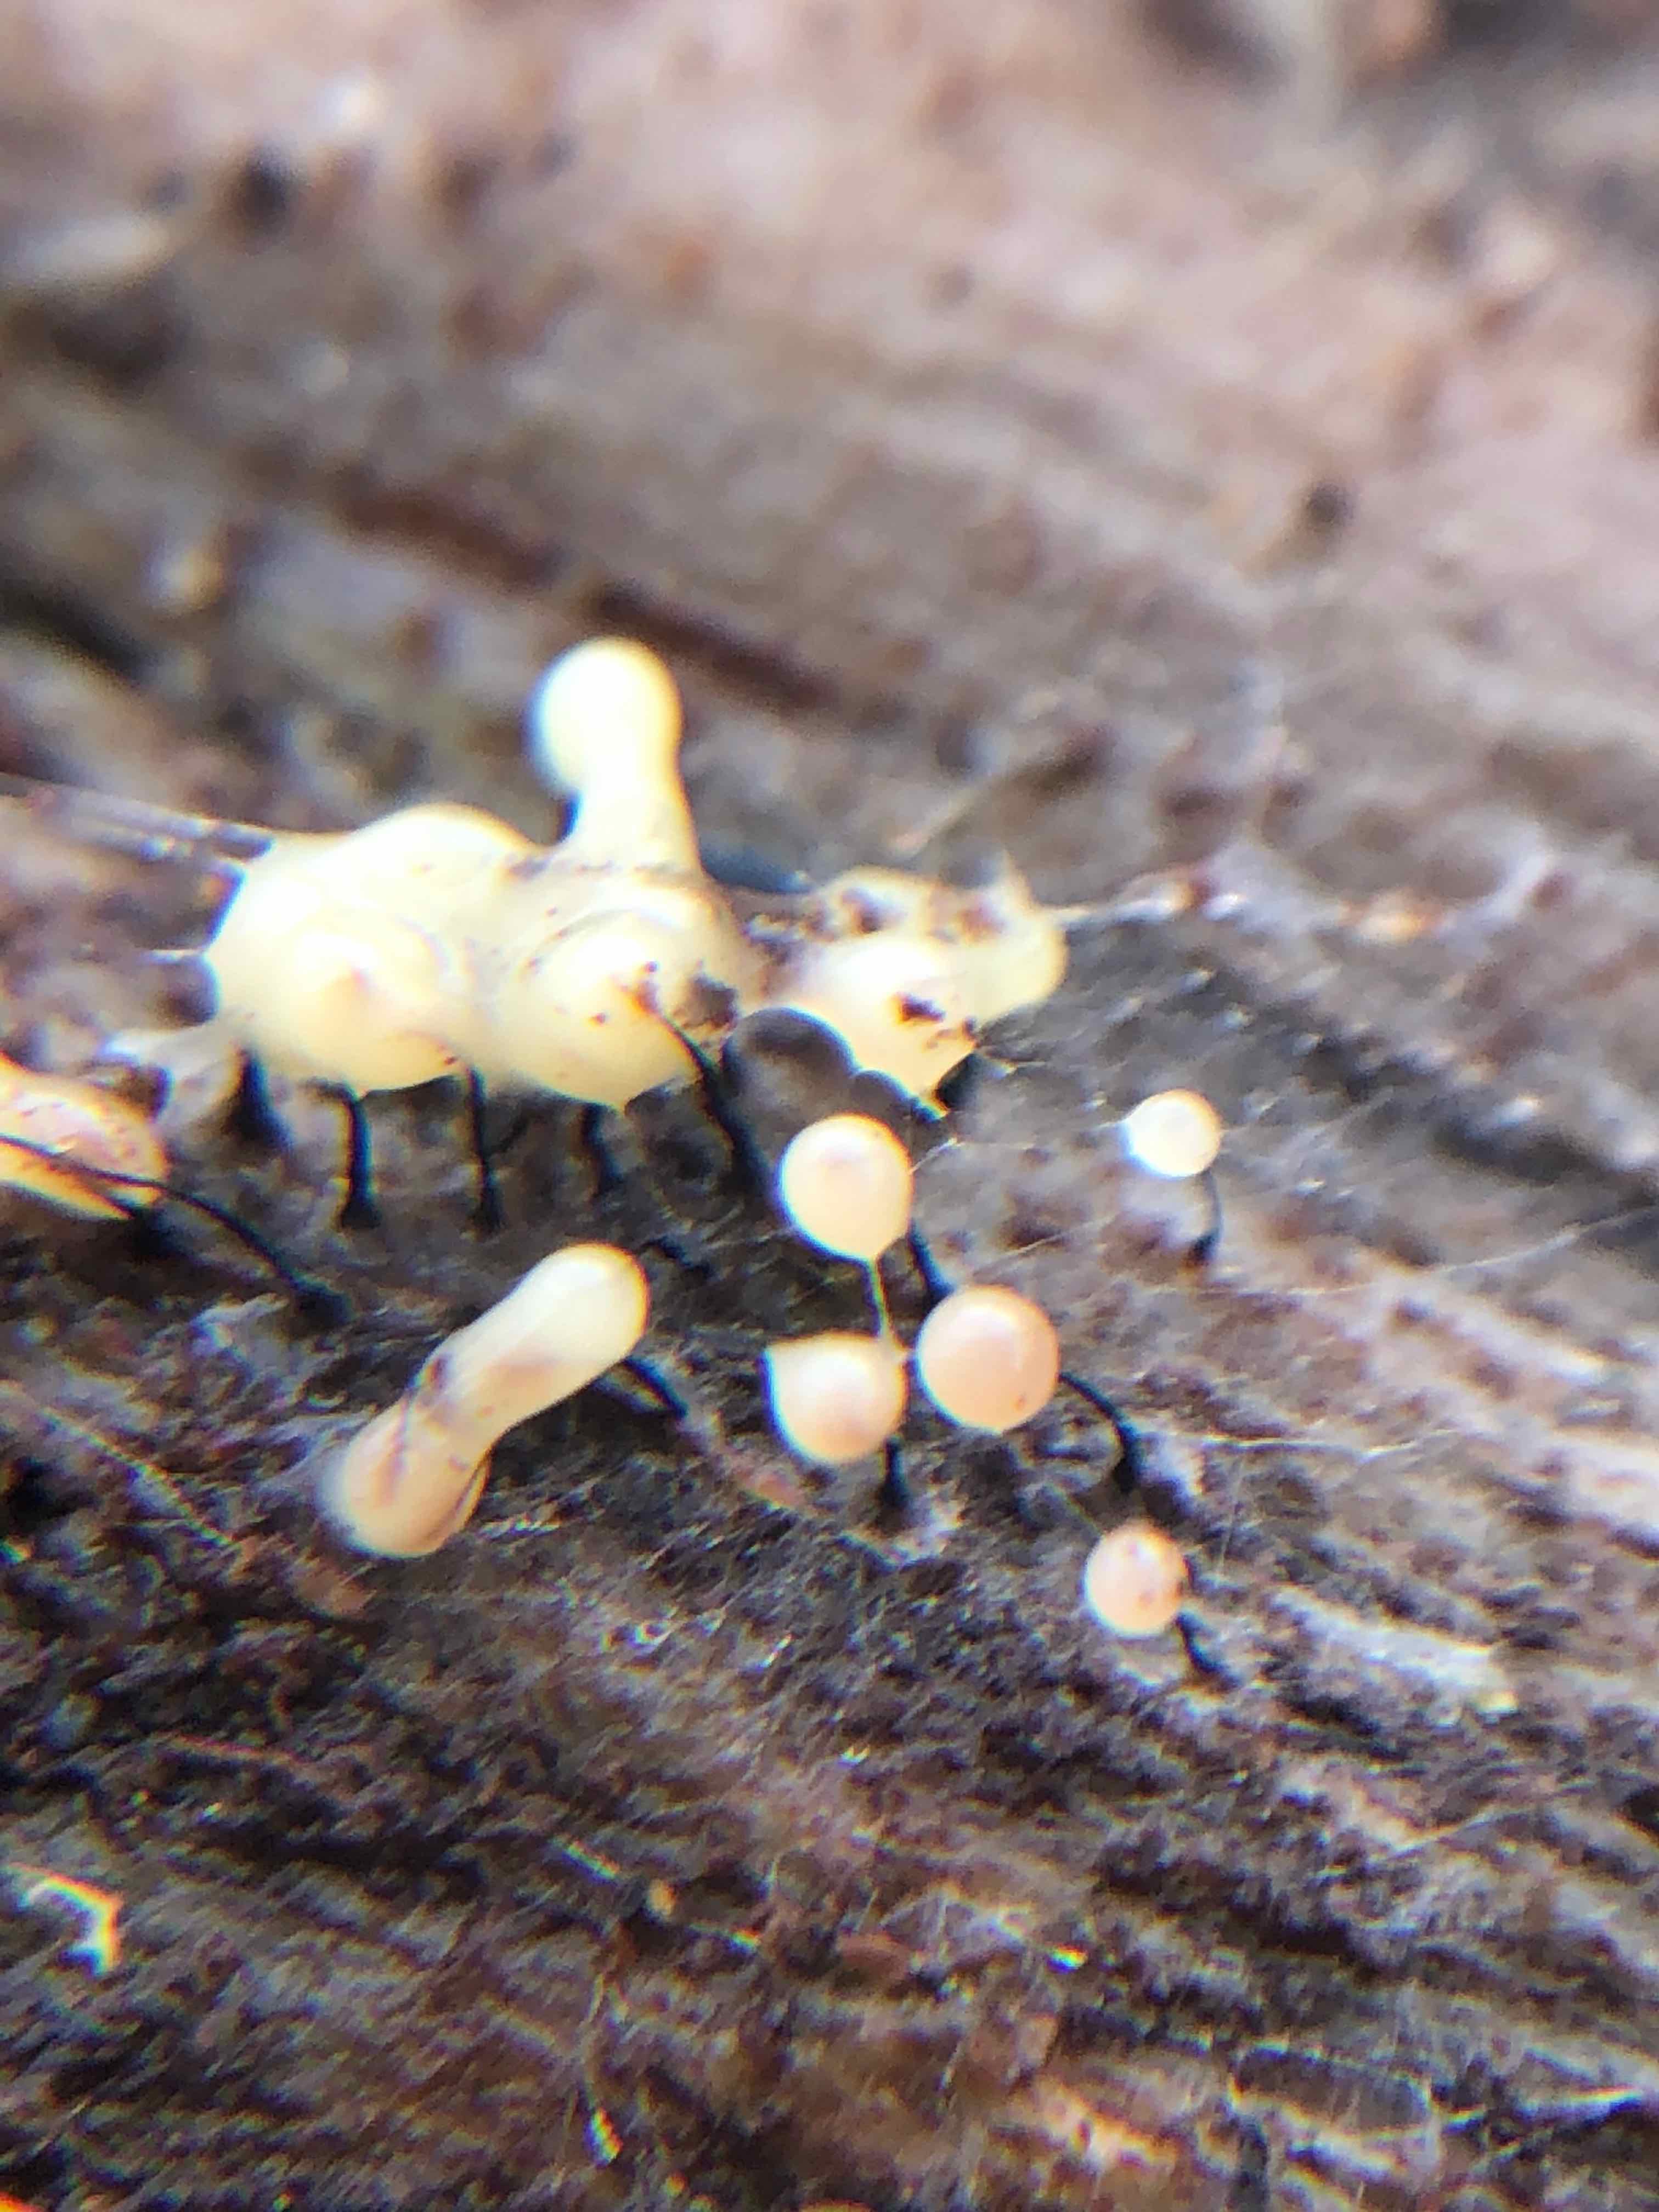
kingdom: Protozoa
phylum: Mycetozoa
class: Myxomycetes
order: Stemonitidales
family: Stemonitidaceae
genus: Comatricha
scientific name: Comatricha
